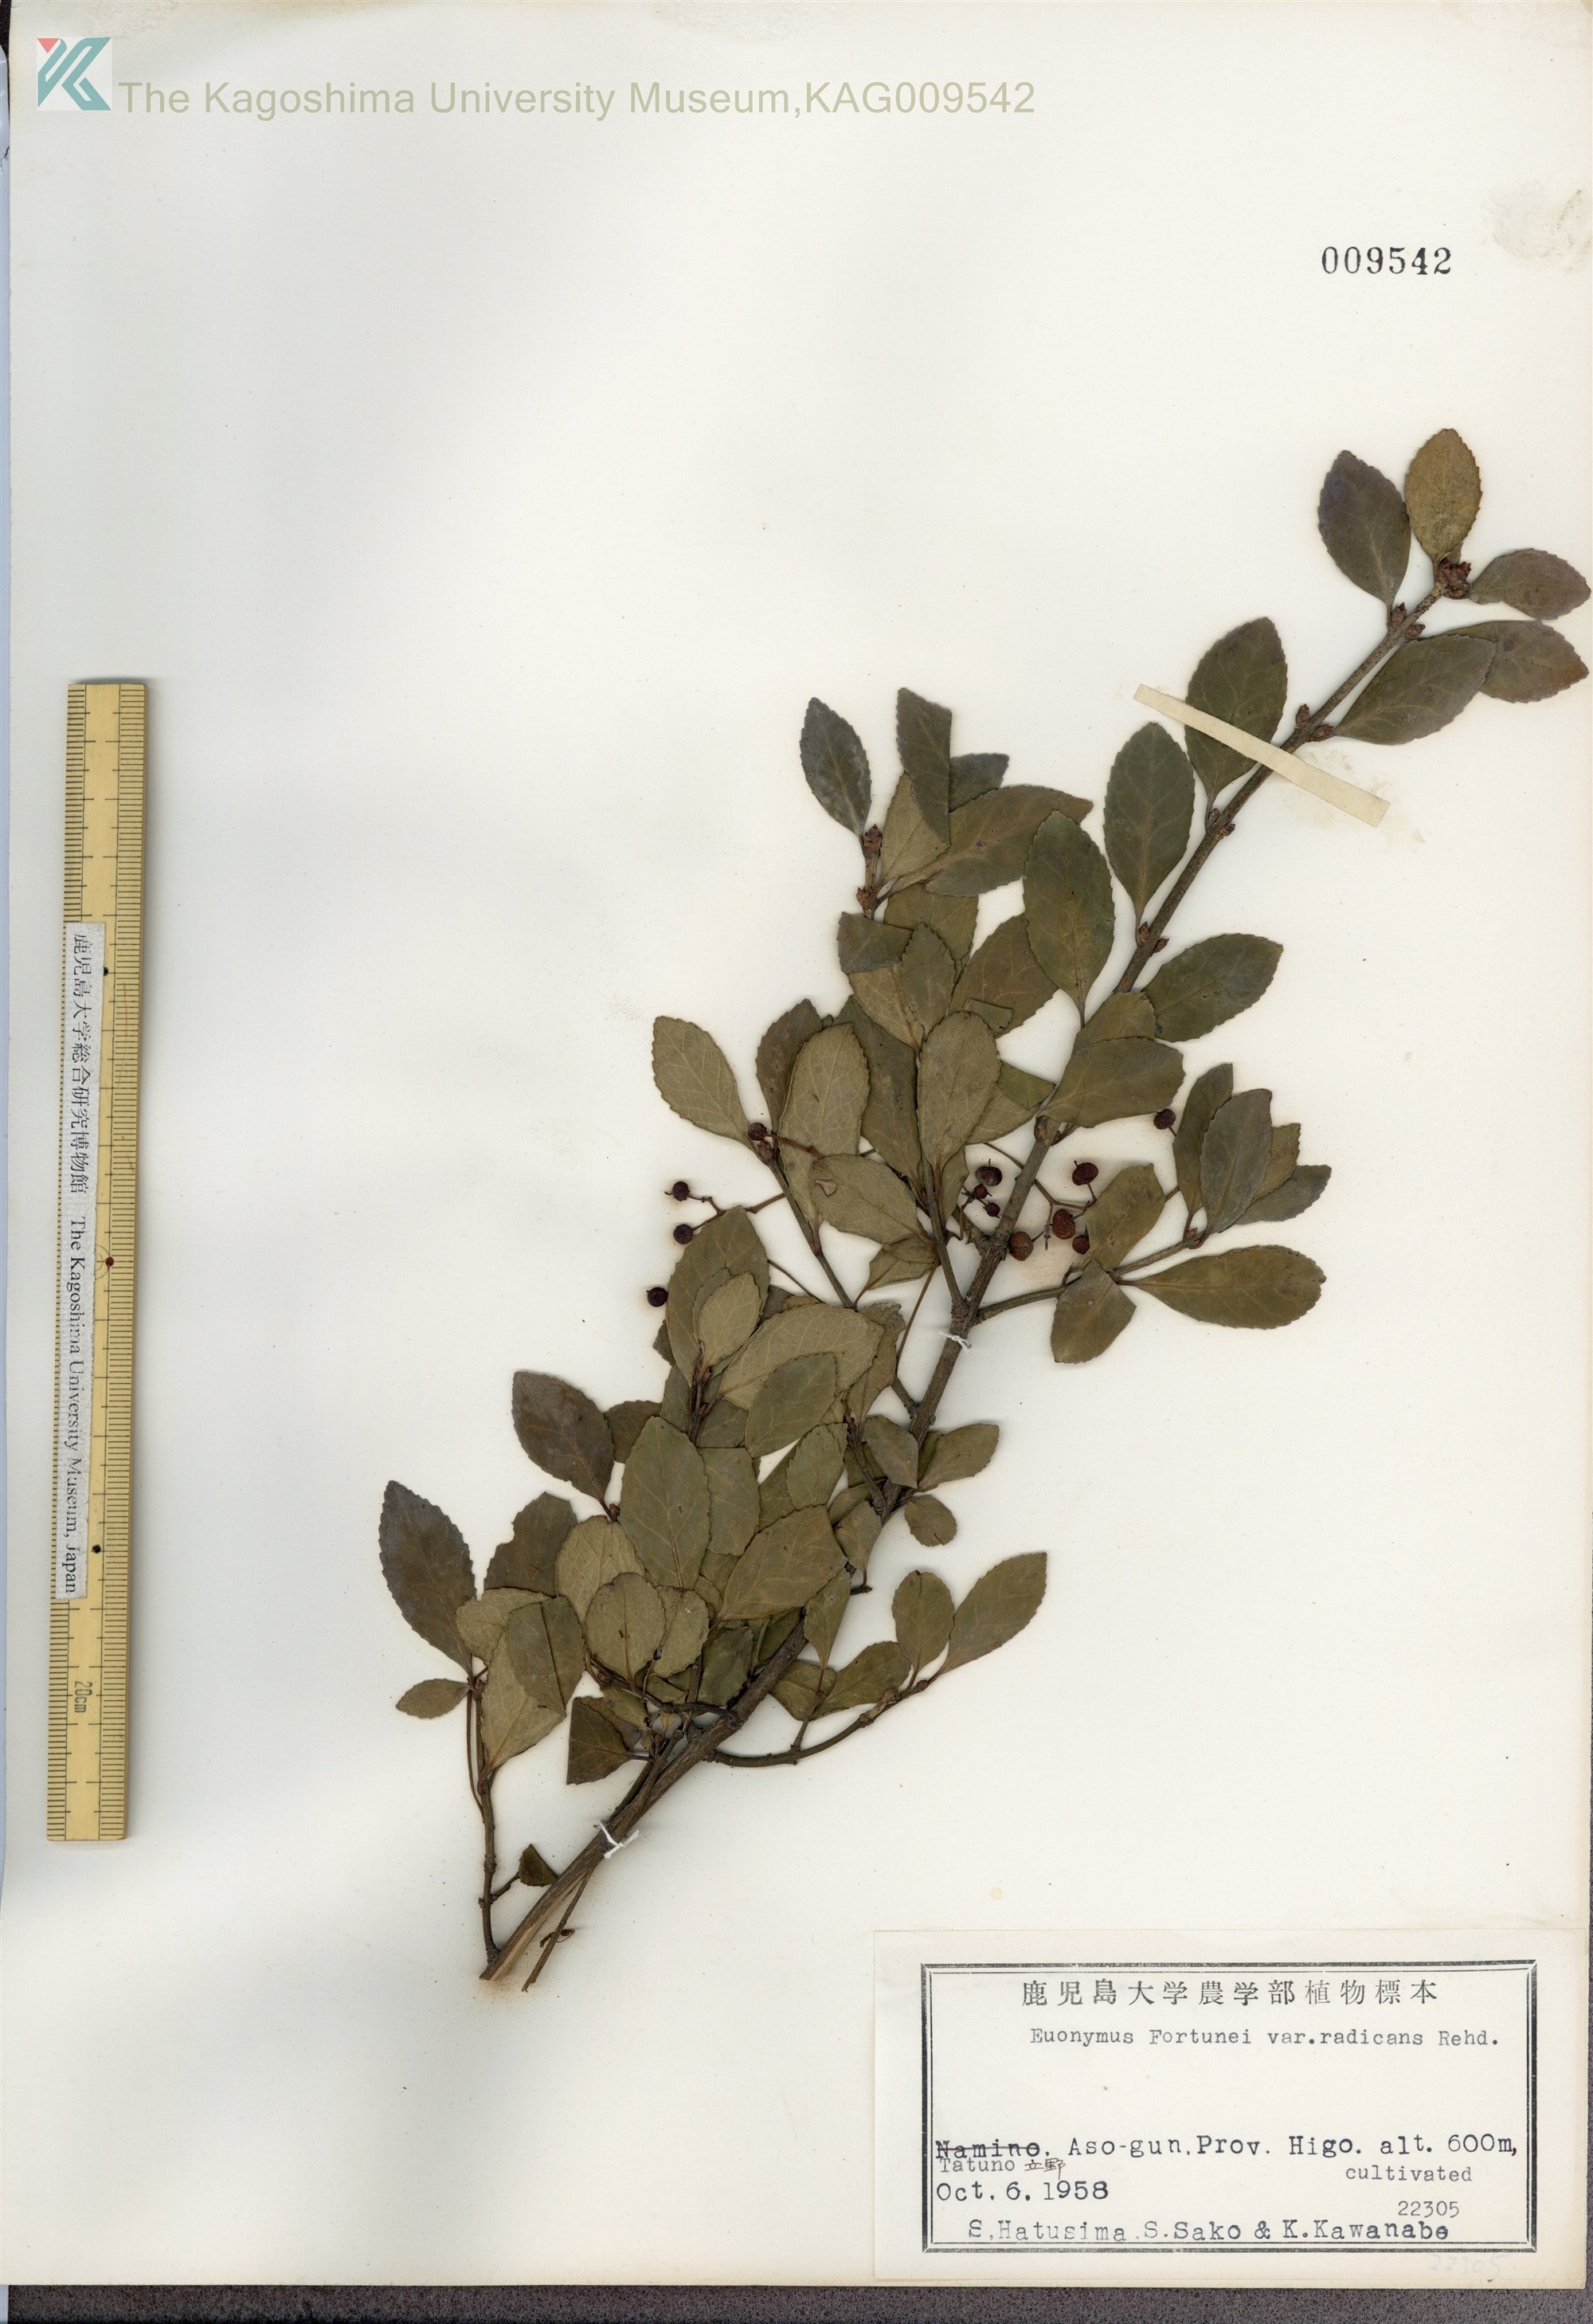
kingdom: Plantae
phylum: Tracheophyta
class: Magnoliopsida
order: Celastrales
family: Celastraceae
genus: Euonymus
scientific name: Euonymus fortunei
